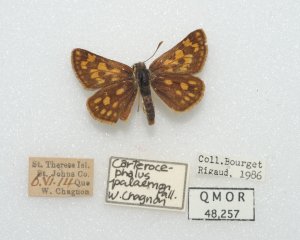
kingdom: Animalia
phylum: Arthropoda
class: Insecta
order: Lepidoptera
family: Hesperiidae
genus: Carterocephalus
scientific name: Carterocephalus palaemon
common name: Chequered Skipper
